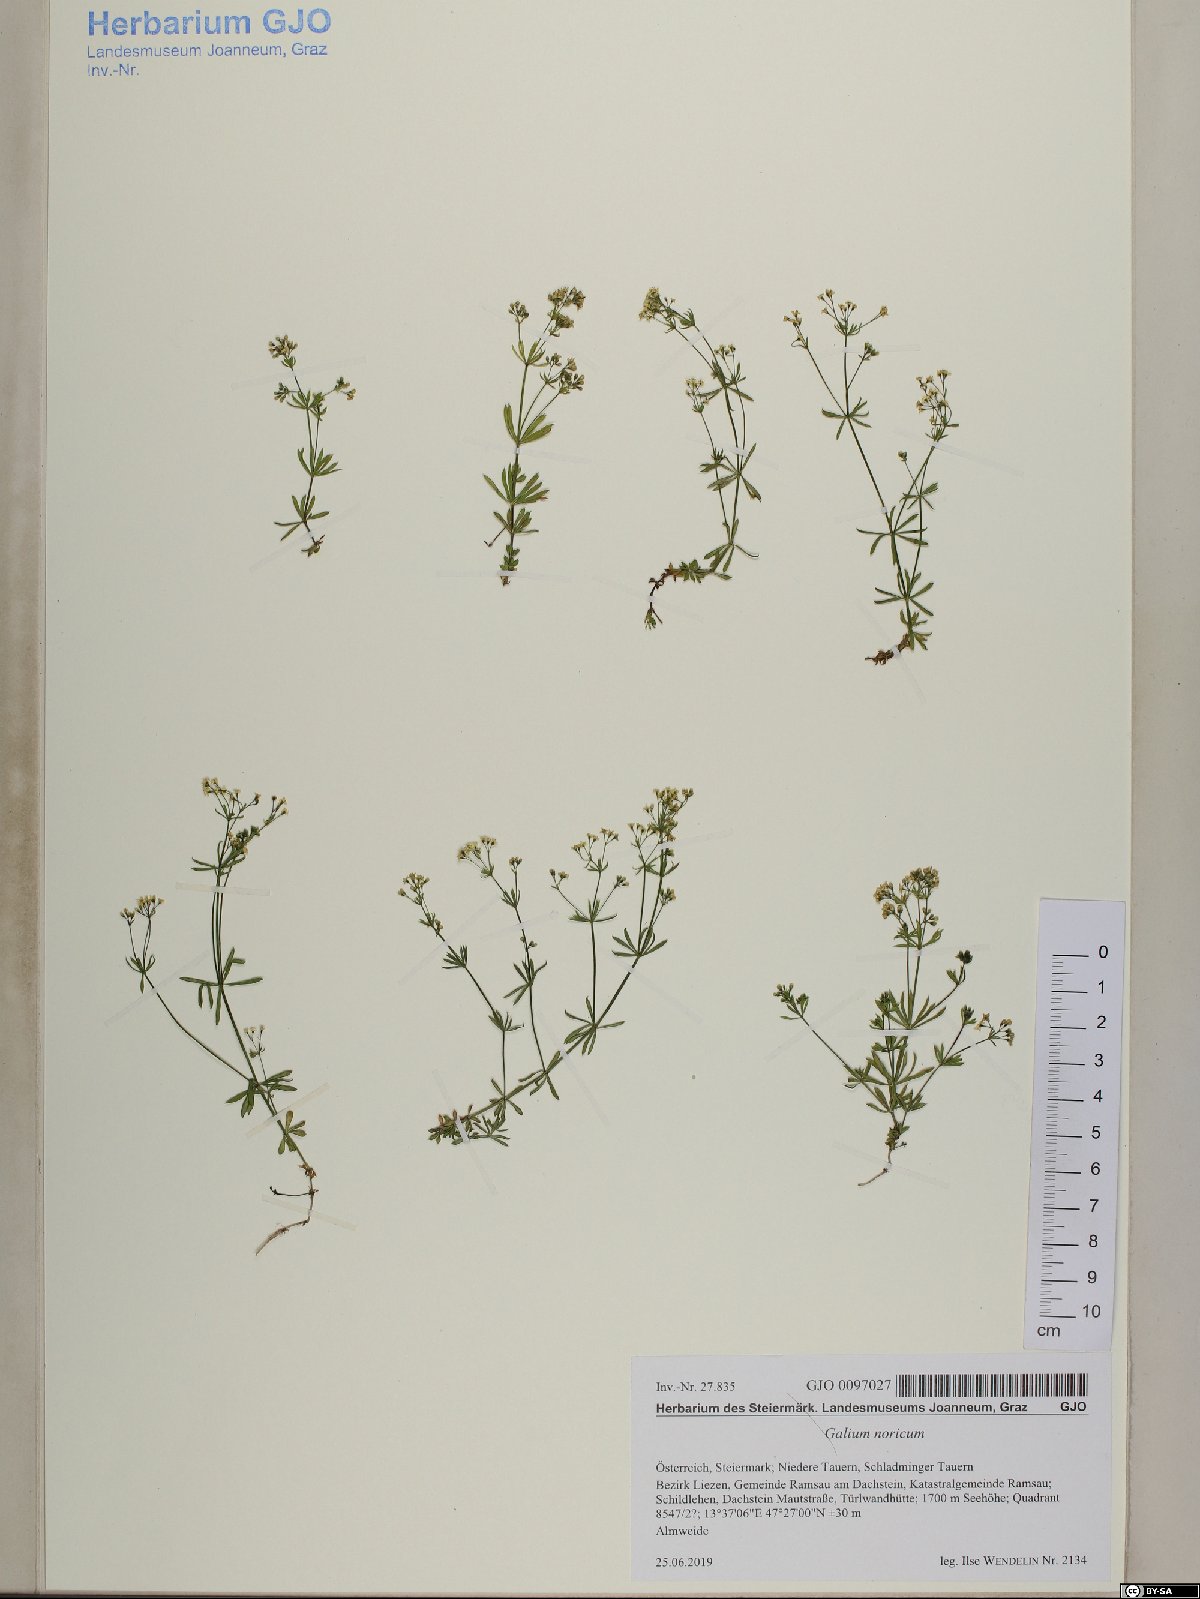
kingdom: Plantae
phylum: Tracheophyta
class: Magnoliopsida
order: Gentianales
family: Rubiaceae
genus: Galium
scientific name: Galium noricum
